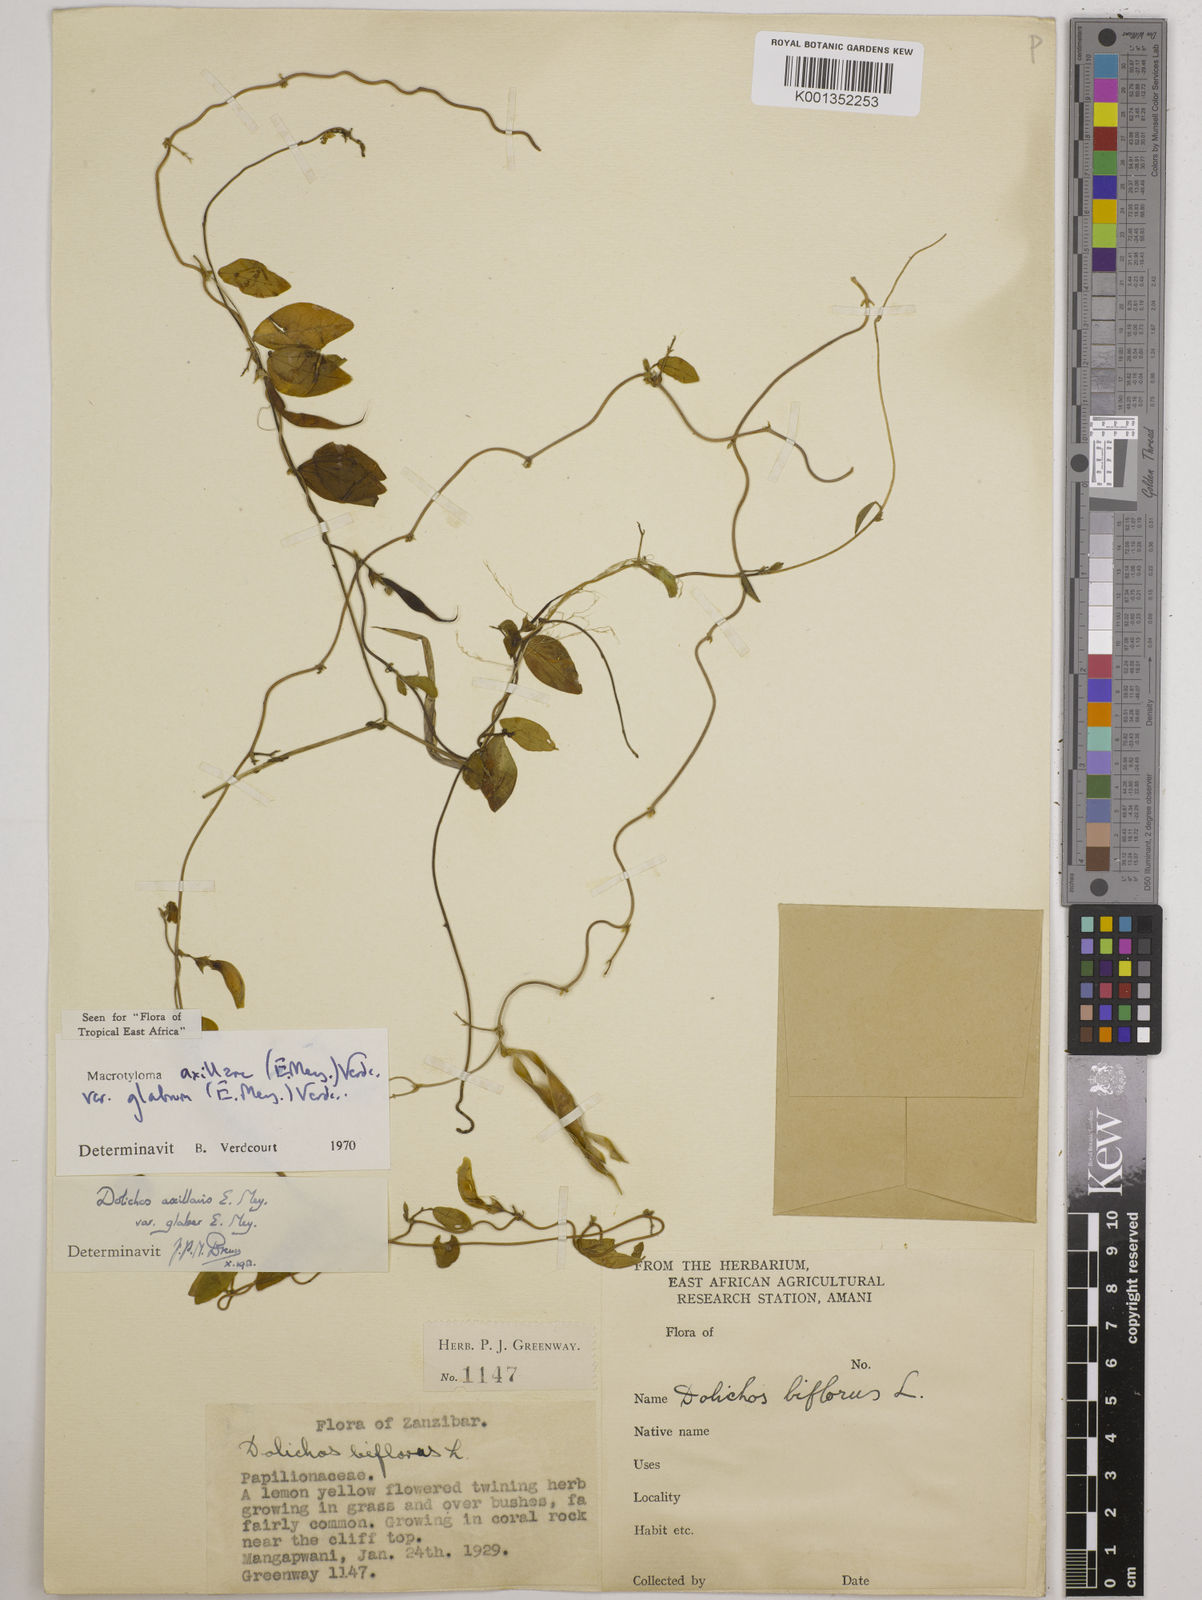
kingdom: Plantae
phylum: Tracheophyta
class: Magnoliopsida
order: Fabales
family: Fabaceae
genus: Macrotyloma
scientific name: Macrotyloma
